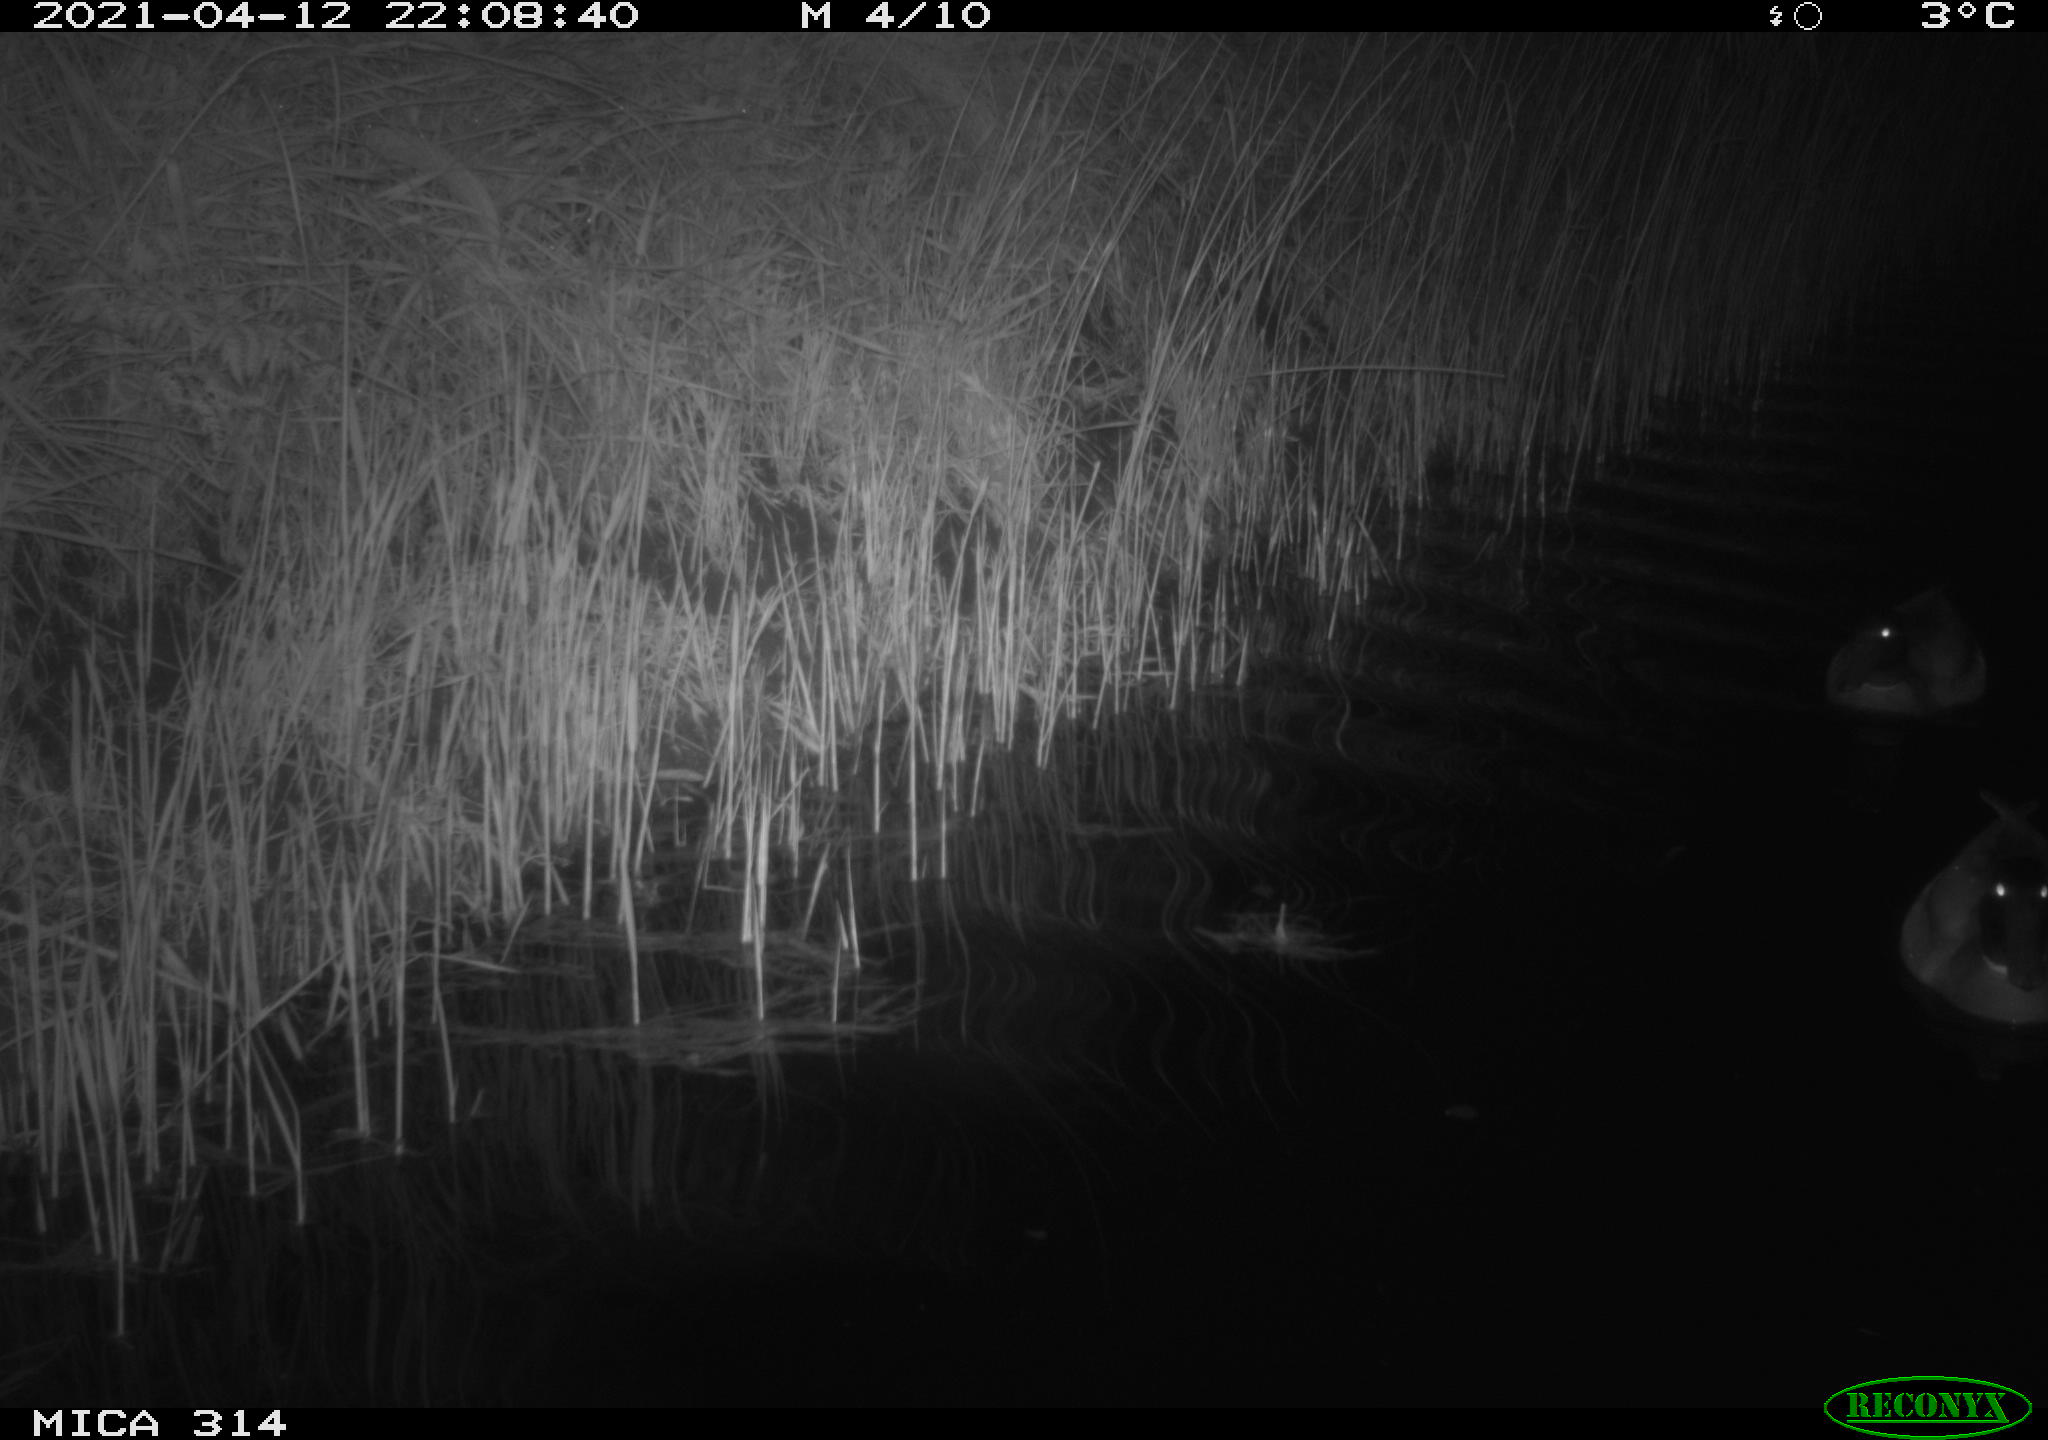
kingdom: Animalia
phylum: Chordata
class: Aves
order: Anseriformes
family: Anatidae
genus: Anas
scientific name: Anas platyrhynchos
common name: Mallard
